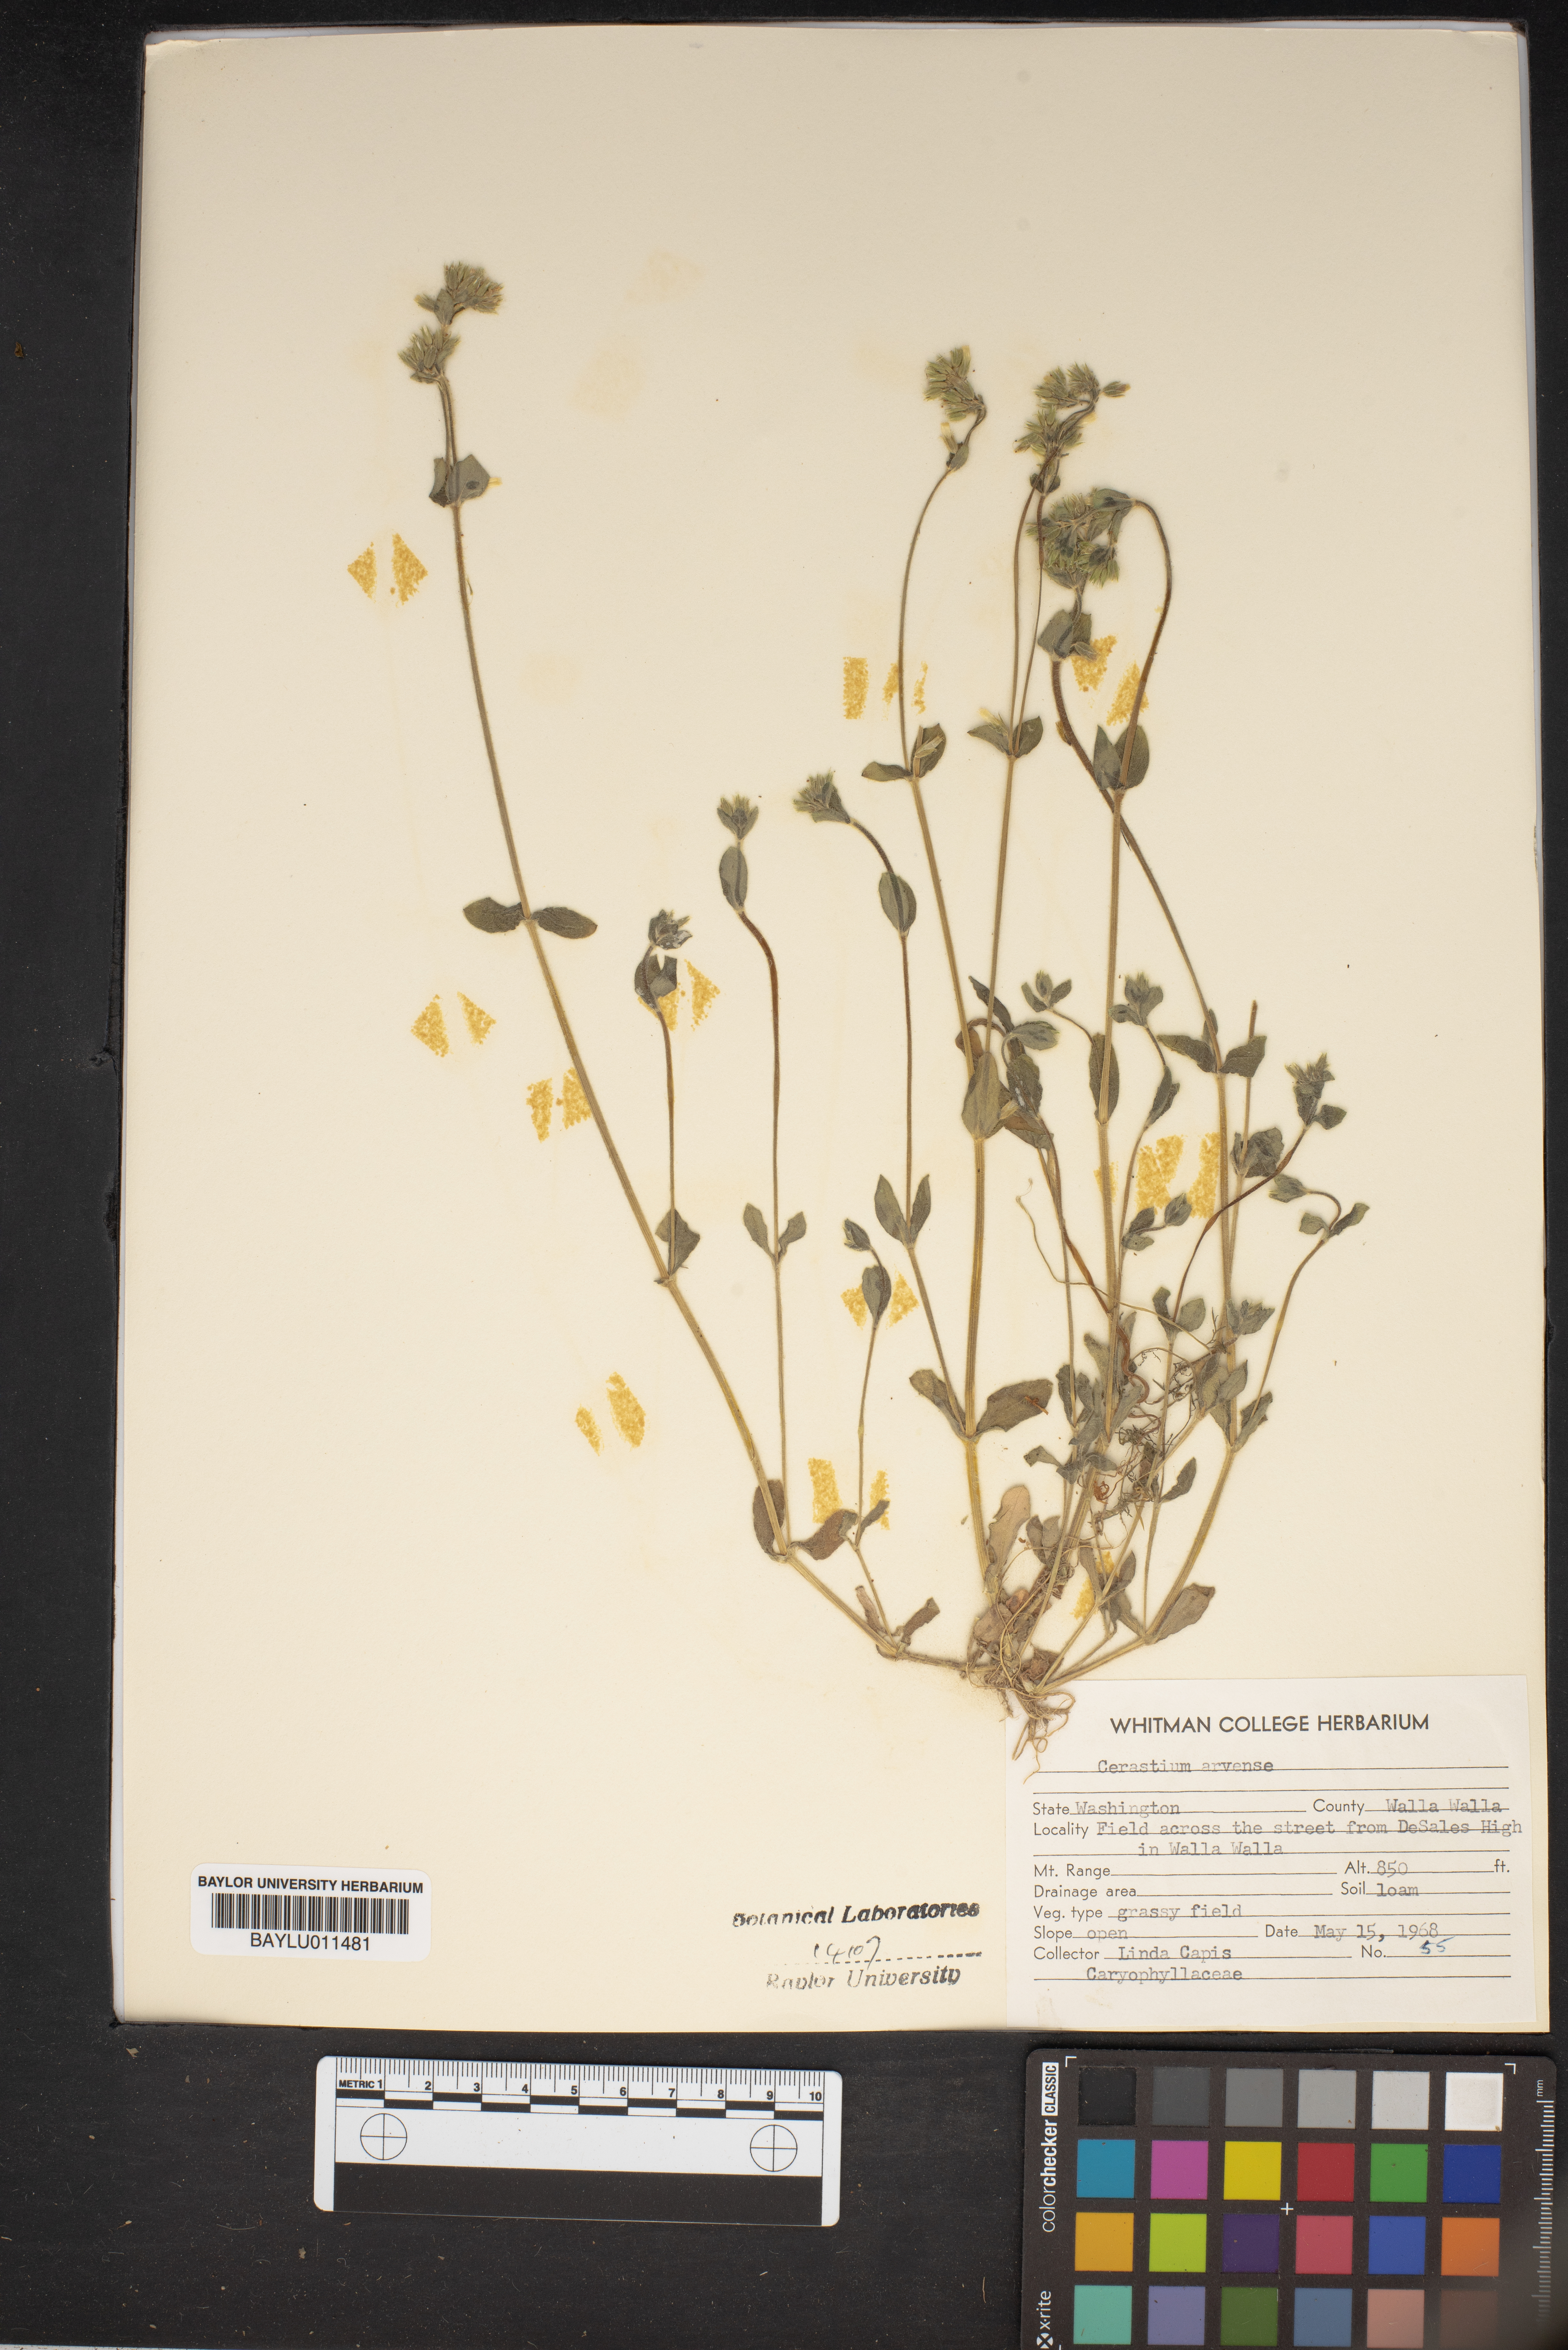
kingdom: Plantae
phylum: Tracheophyta
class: Magnoliopsida
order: Caryophyllales
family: Caryophyllaceae
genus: Cerastium
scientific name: Cerastium arvense
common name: Field mouse-ear
